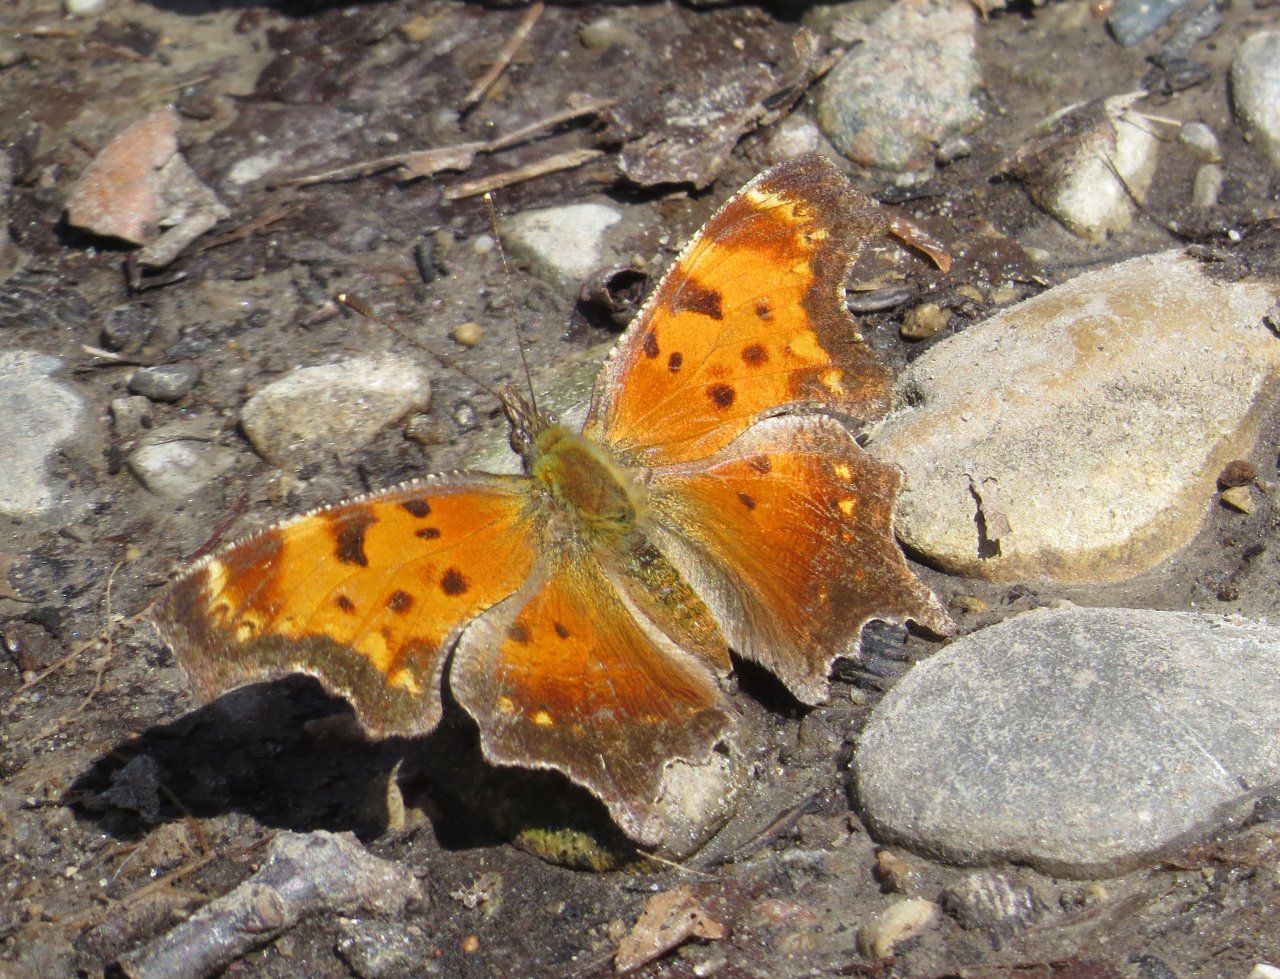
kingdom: Animalia
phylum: Arthropoda
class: Insecta
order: Lepidoptera
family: Nymphalidae
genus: Polygonia
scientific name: Polygonia progne
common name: Gray Comma
